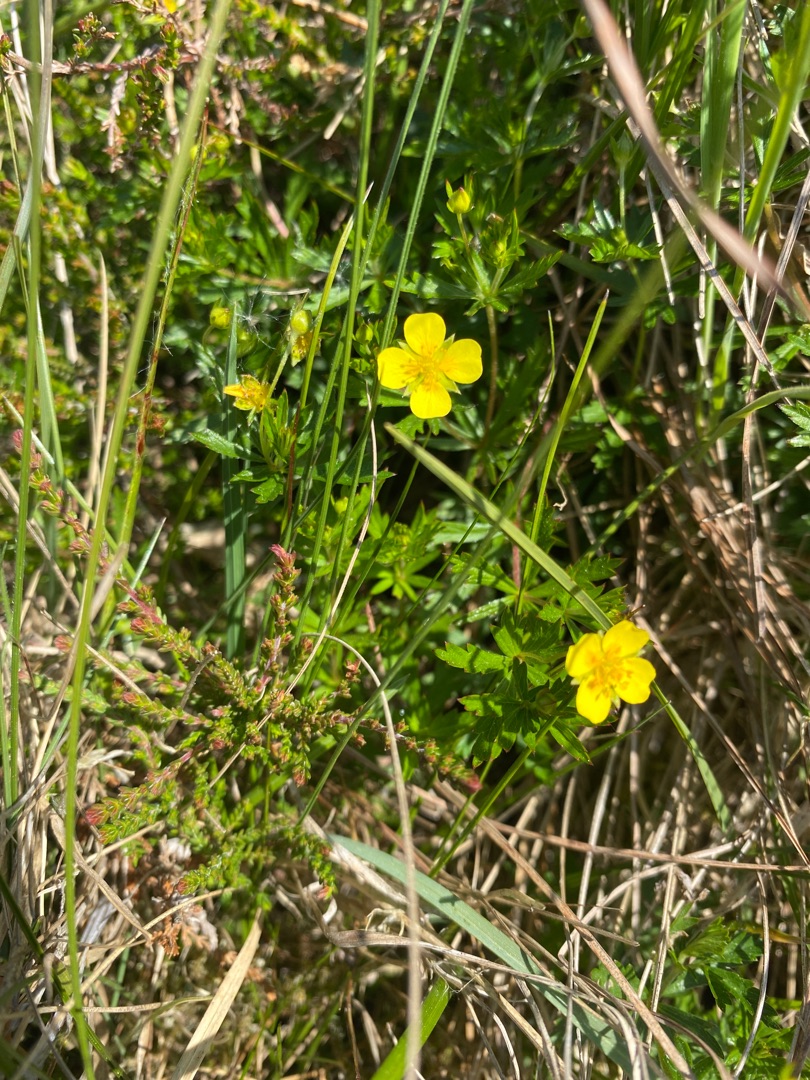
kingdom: Plantae
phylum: Tracheophyta
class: Magnoliopsida
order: Rosales
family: Rosaceae
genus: Potentilla
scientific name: Potentilla erecta
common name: Tormentil
